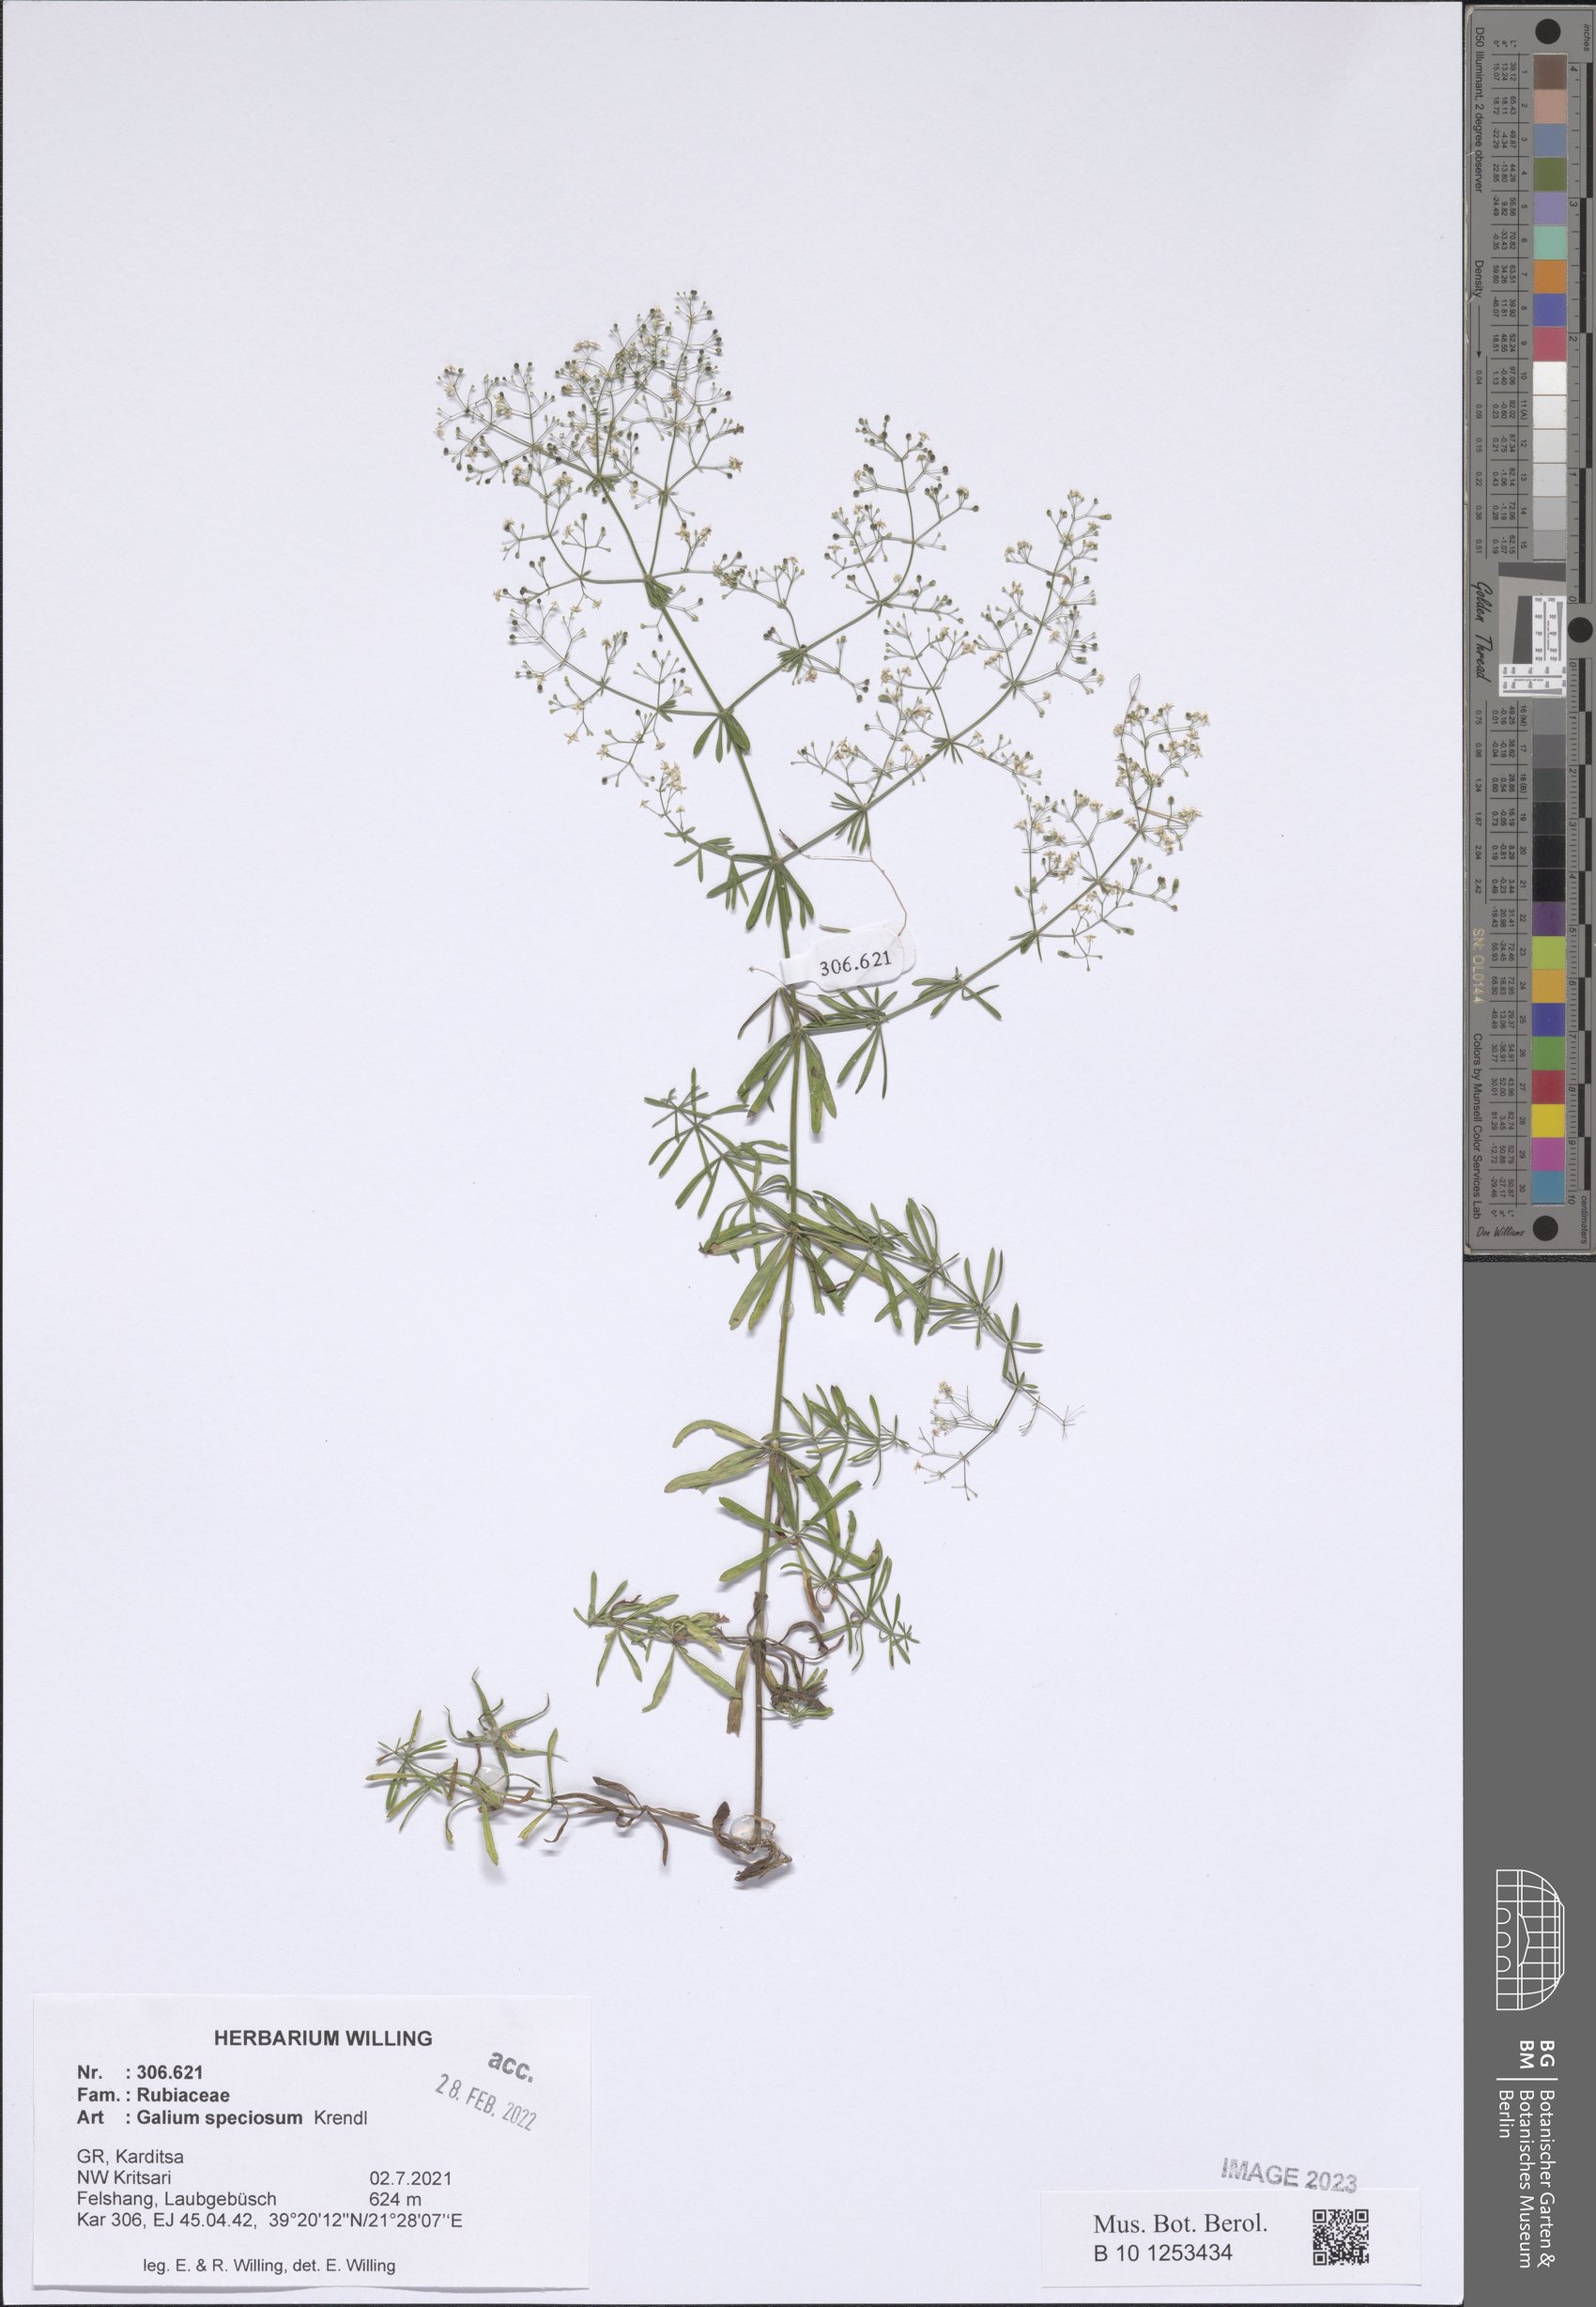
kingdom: Plantae
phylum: Tracheophyta
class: Magnoliopsida
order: Gentianales
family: Rubiaceae
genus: Galium
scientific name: Galium speciosum
